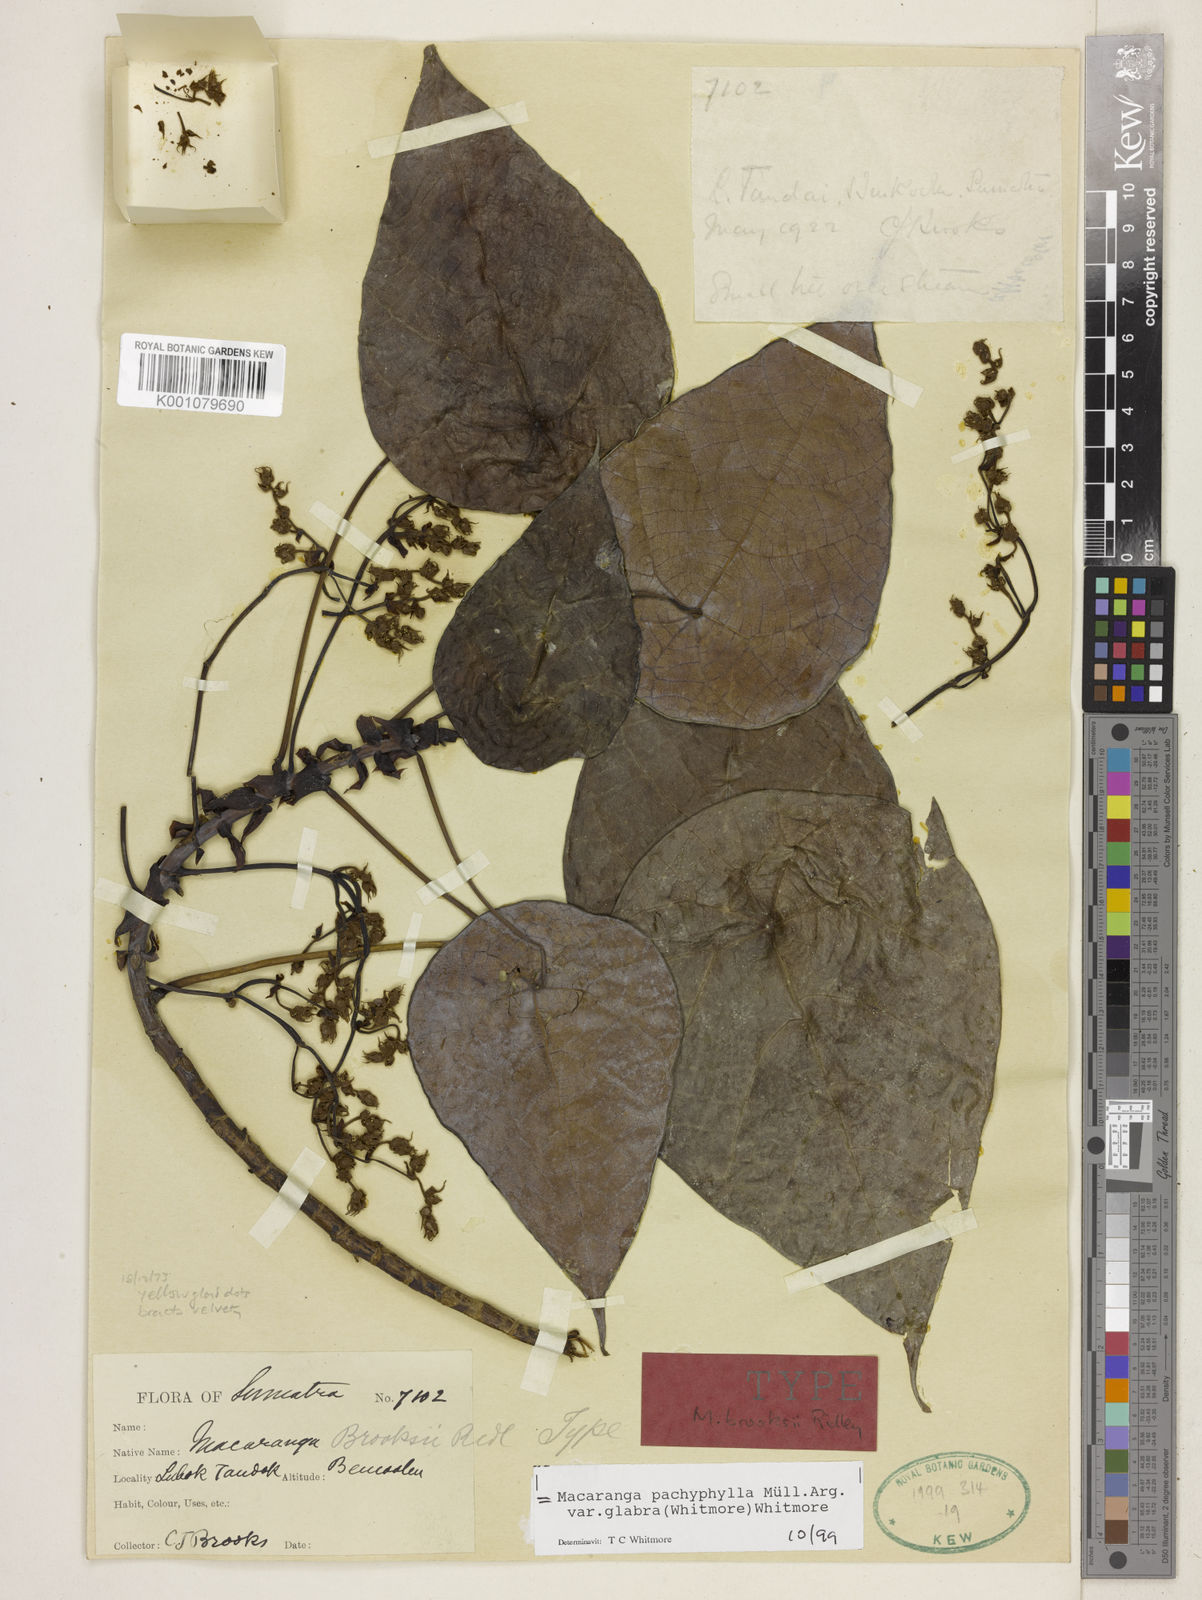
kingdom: Plantae
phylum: Tracheophyta
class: Magnoliopsida
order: Malpighiales
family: Euphorbiaceae
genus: Macaranga
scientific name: Macaranga
